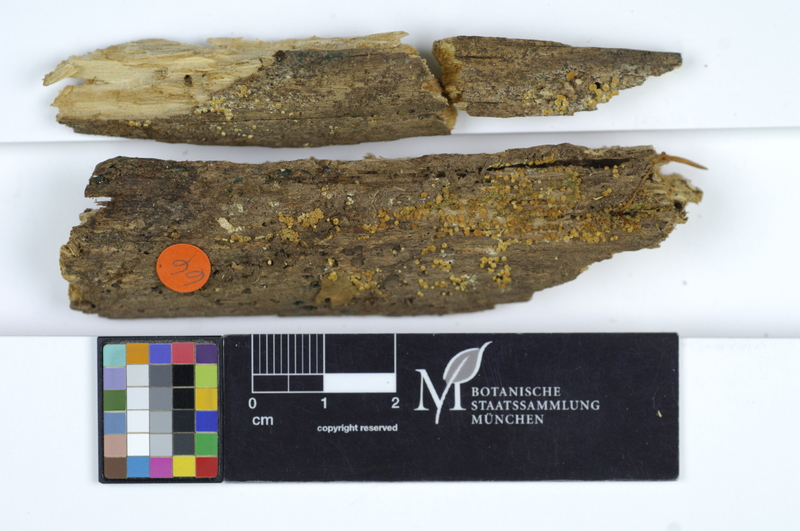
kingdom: Plantae
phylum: Tracheophyta
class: Magnoliopsida
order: Fagales
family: Fagaceae
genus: Fagus
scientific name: Fagus sylvatica
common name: Beech
